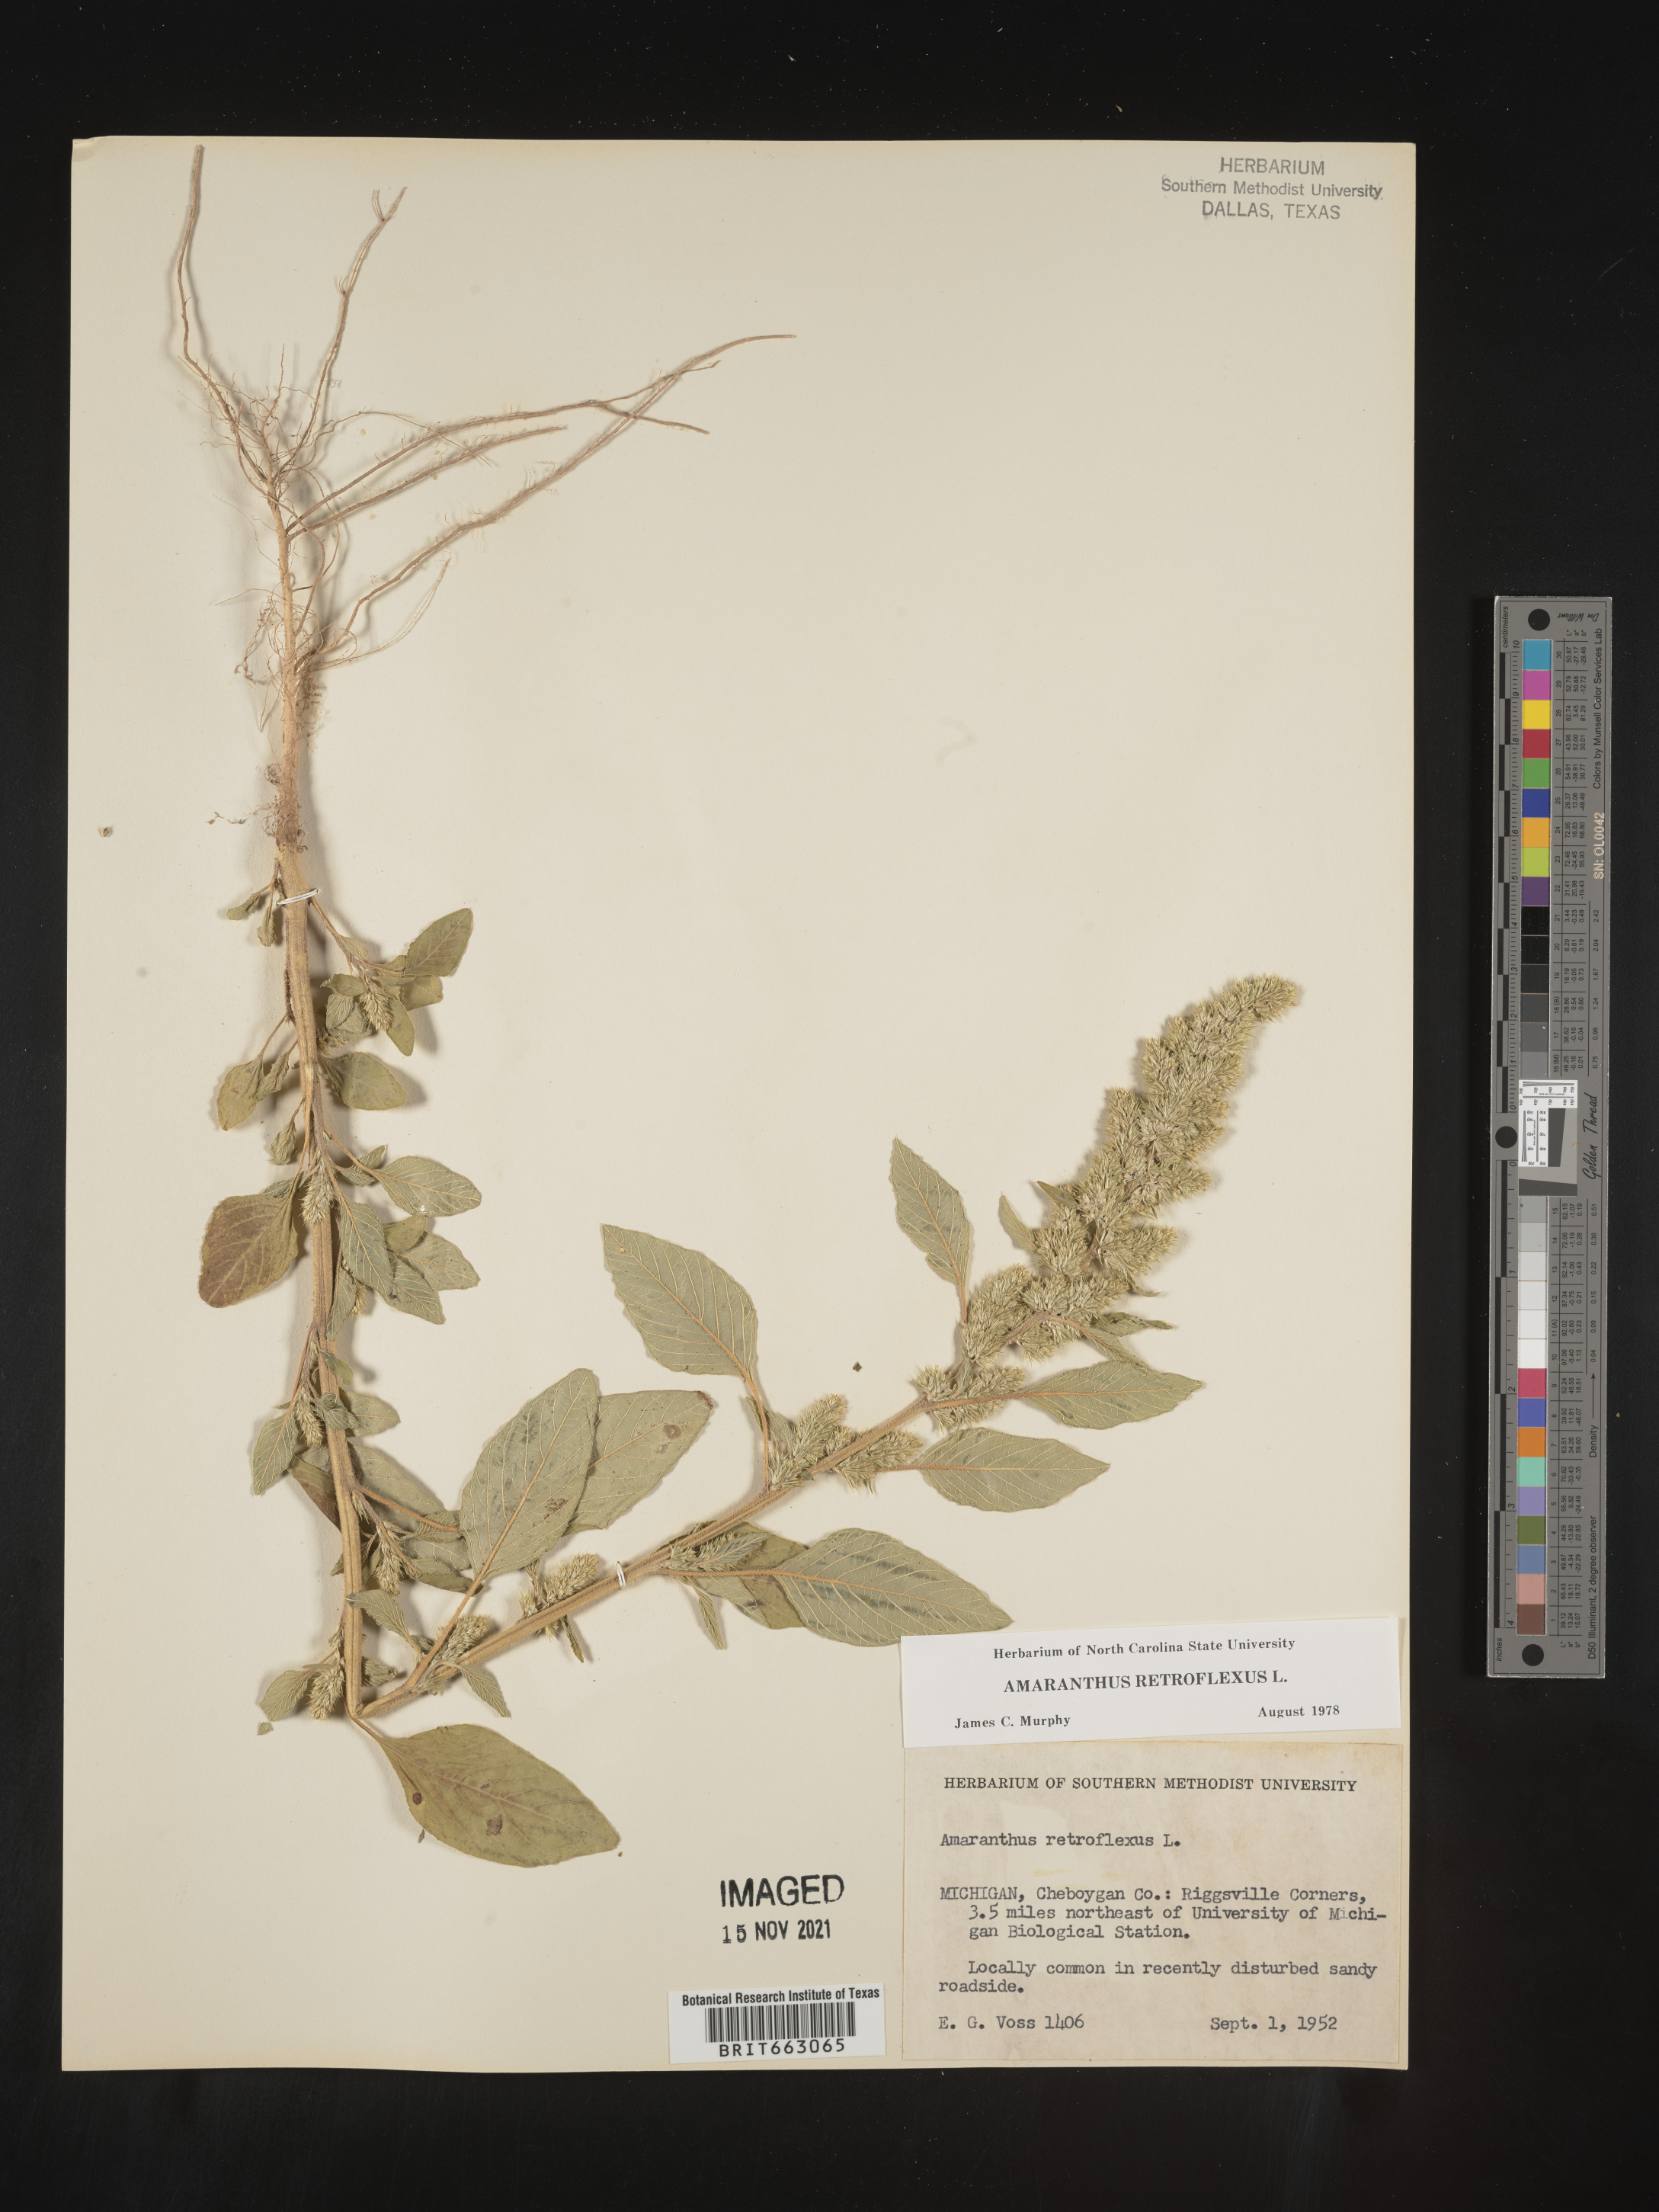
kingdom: Plantae
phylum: Tracheophyta
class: Magnoliopsida
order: Caryophyllales
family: Amaranthaceae
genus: Amaranthus
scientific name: Amaranthus retroflexus
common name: Redroot amaranth
